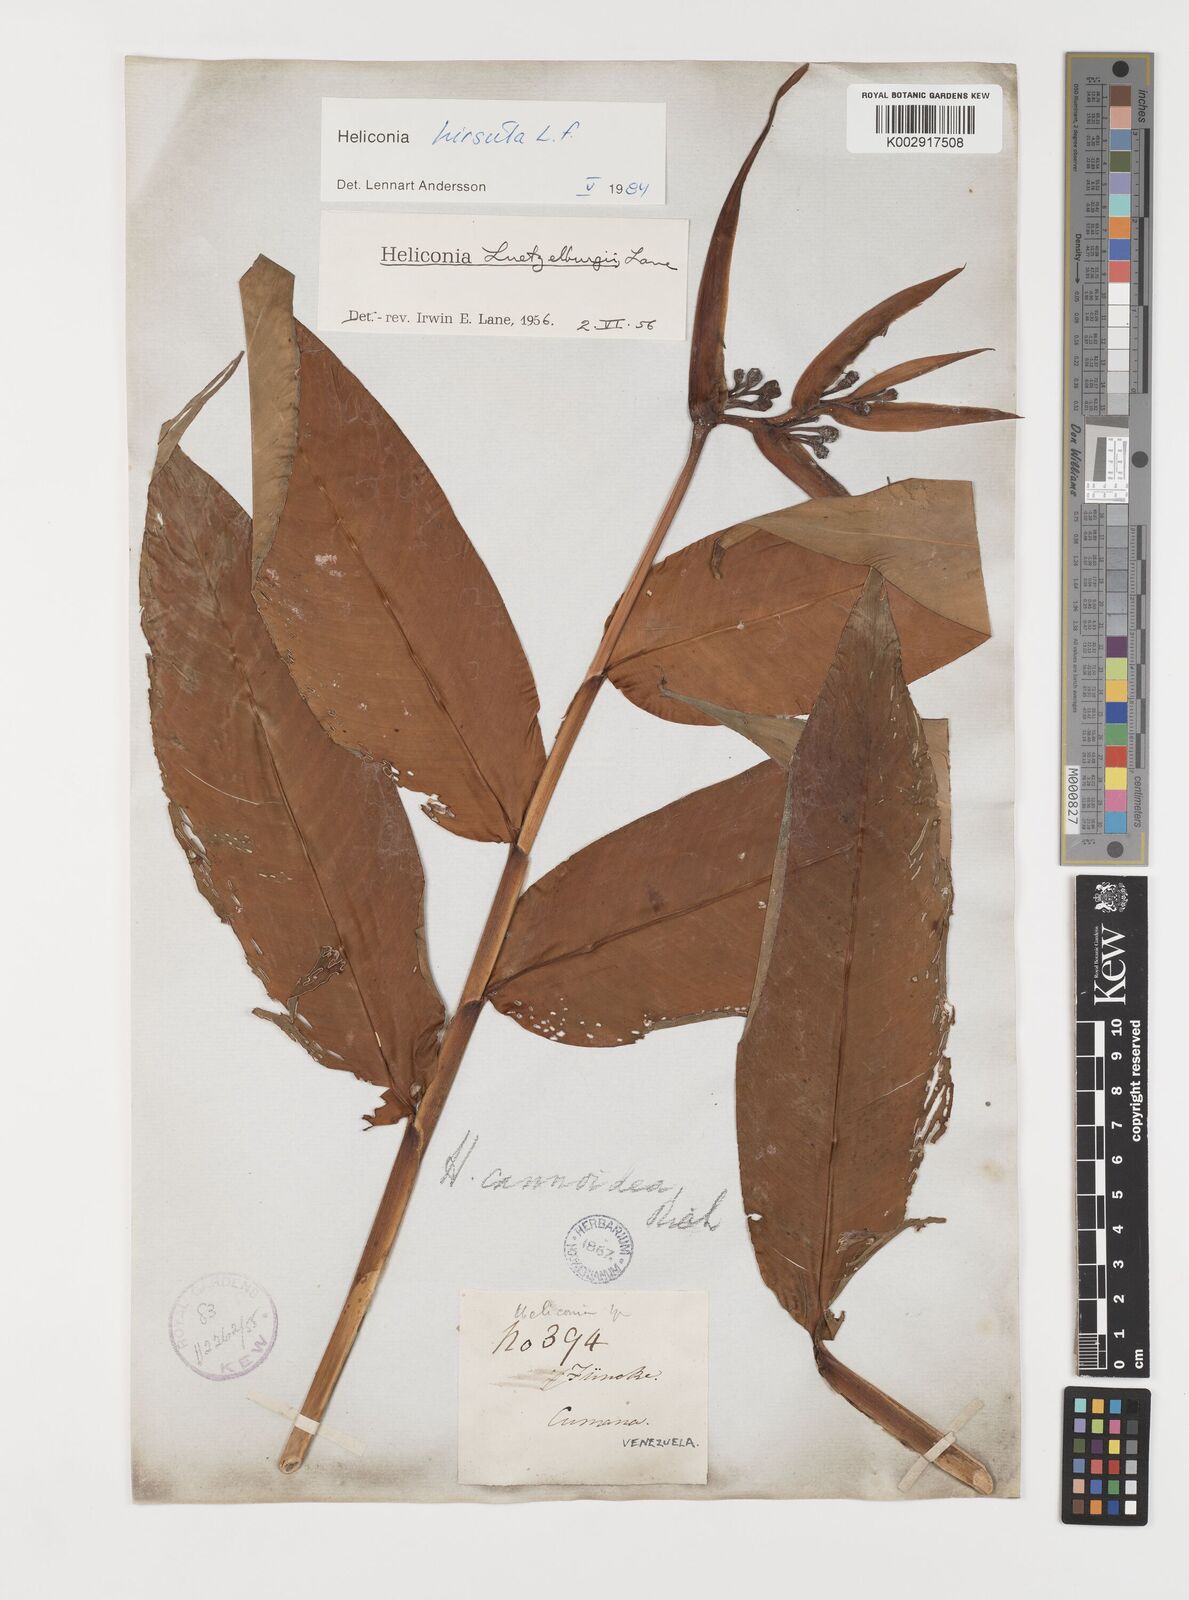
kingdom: Plantae
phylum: Tracheophyta
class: Liliopsida
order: Zingiberales
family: Heliconiaceae
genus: Heliconia
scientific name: Heliconia hirsuta
